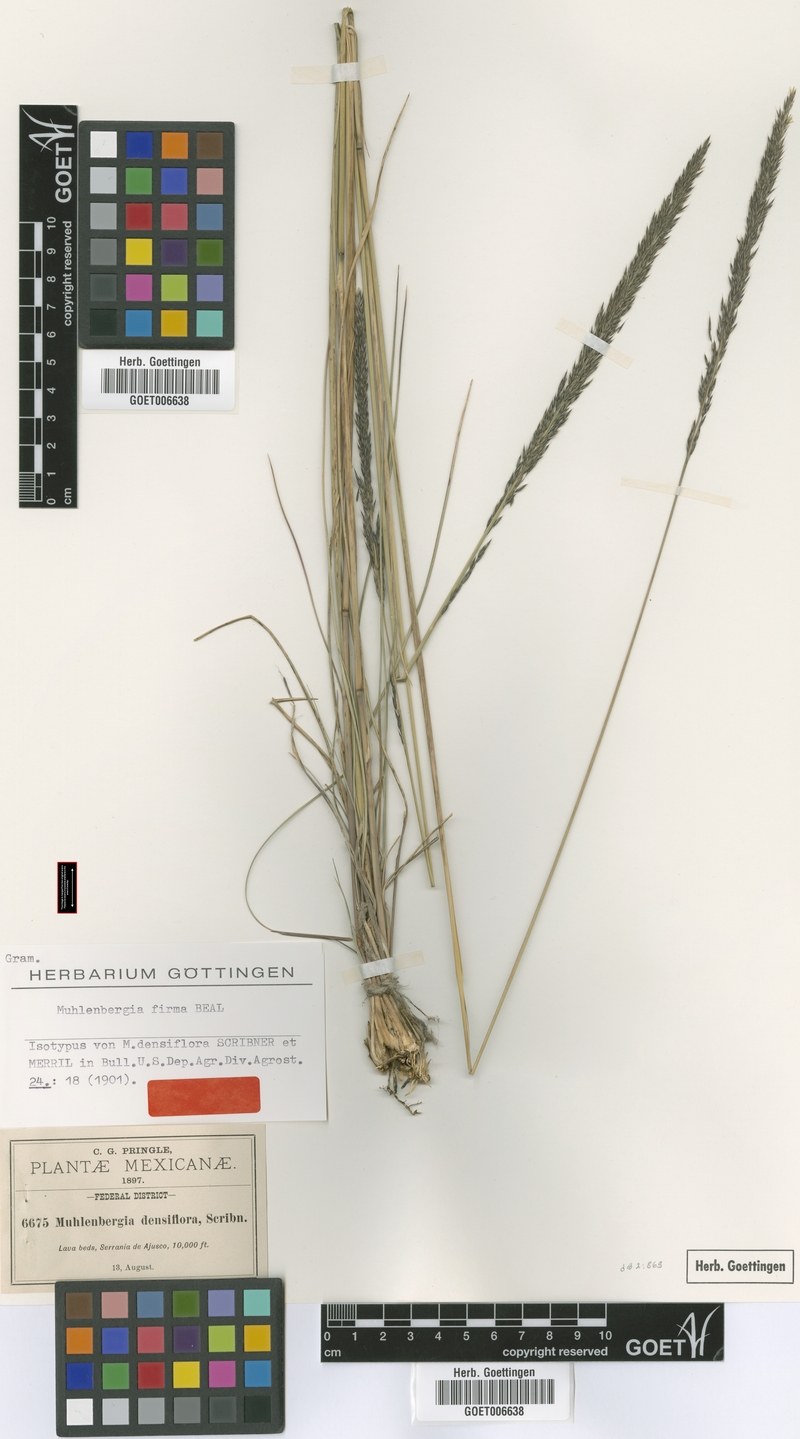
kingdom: Plantae
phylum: Tracheophyta
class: Liliopsida
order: Poales
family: Poaceae
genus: Muhlenbergia
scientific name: Muhlenbergia dubia
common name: Pine muhly
